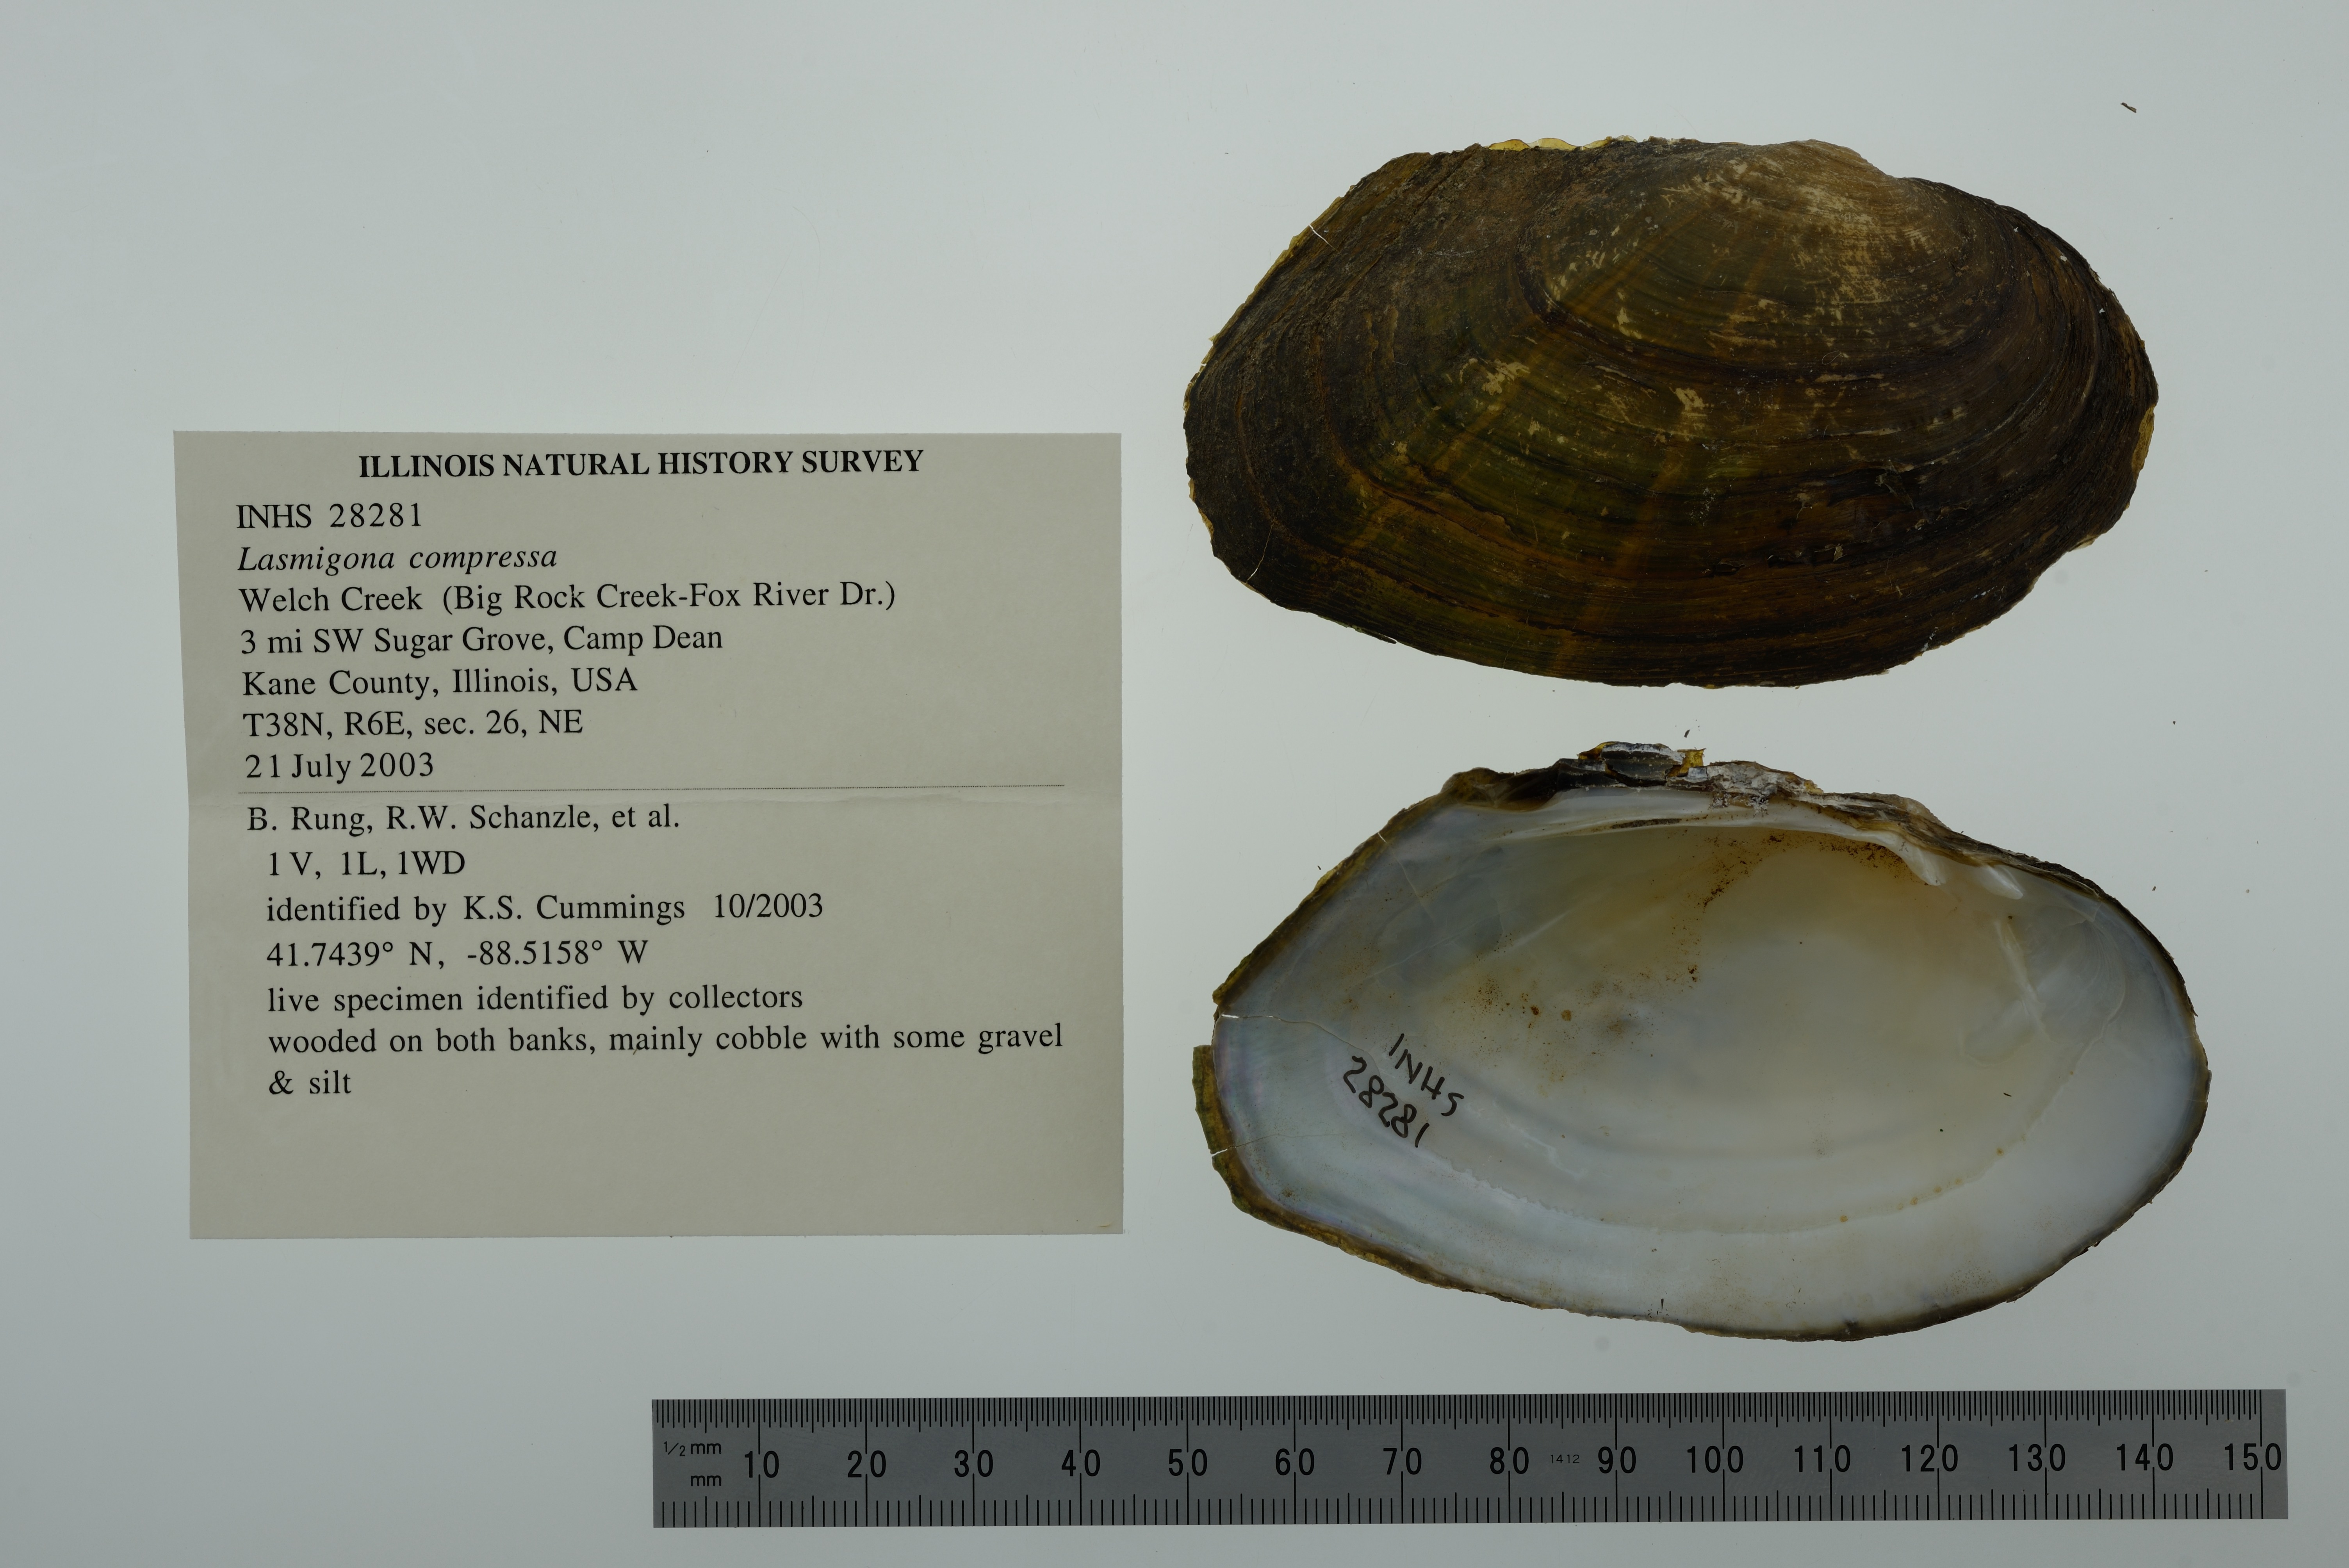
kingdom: Animalia
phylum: Mollusca
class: Bivalvia
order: Unionida
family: Unionidae
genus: Lasmigona
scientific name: Lasmigona compressa
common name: Creek heelsplitter
